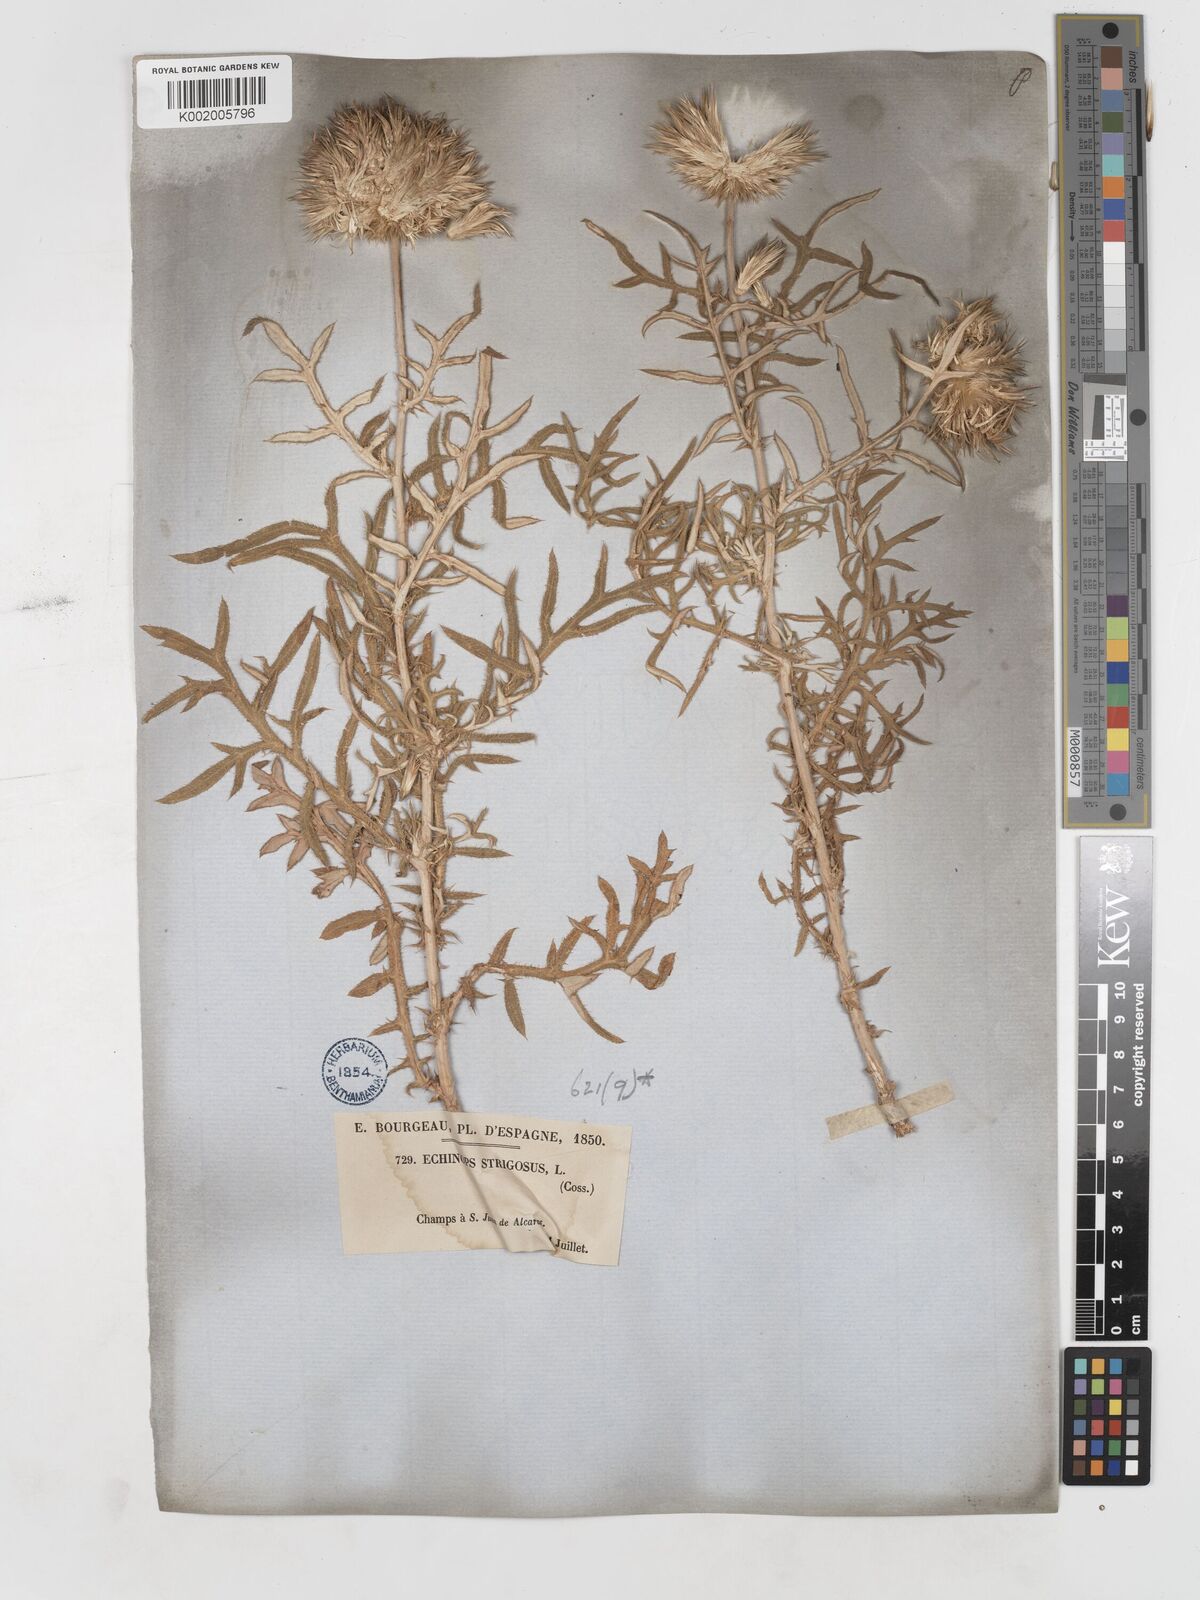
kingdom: Plantae
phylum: Tracheophyta
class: Magnoliopsida
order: Asterales
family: Asteraceae
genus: Echinops
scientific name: Echinops strigosus
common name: Rough-leaf globe thistle
